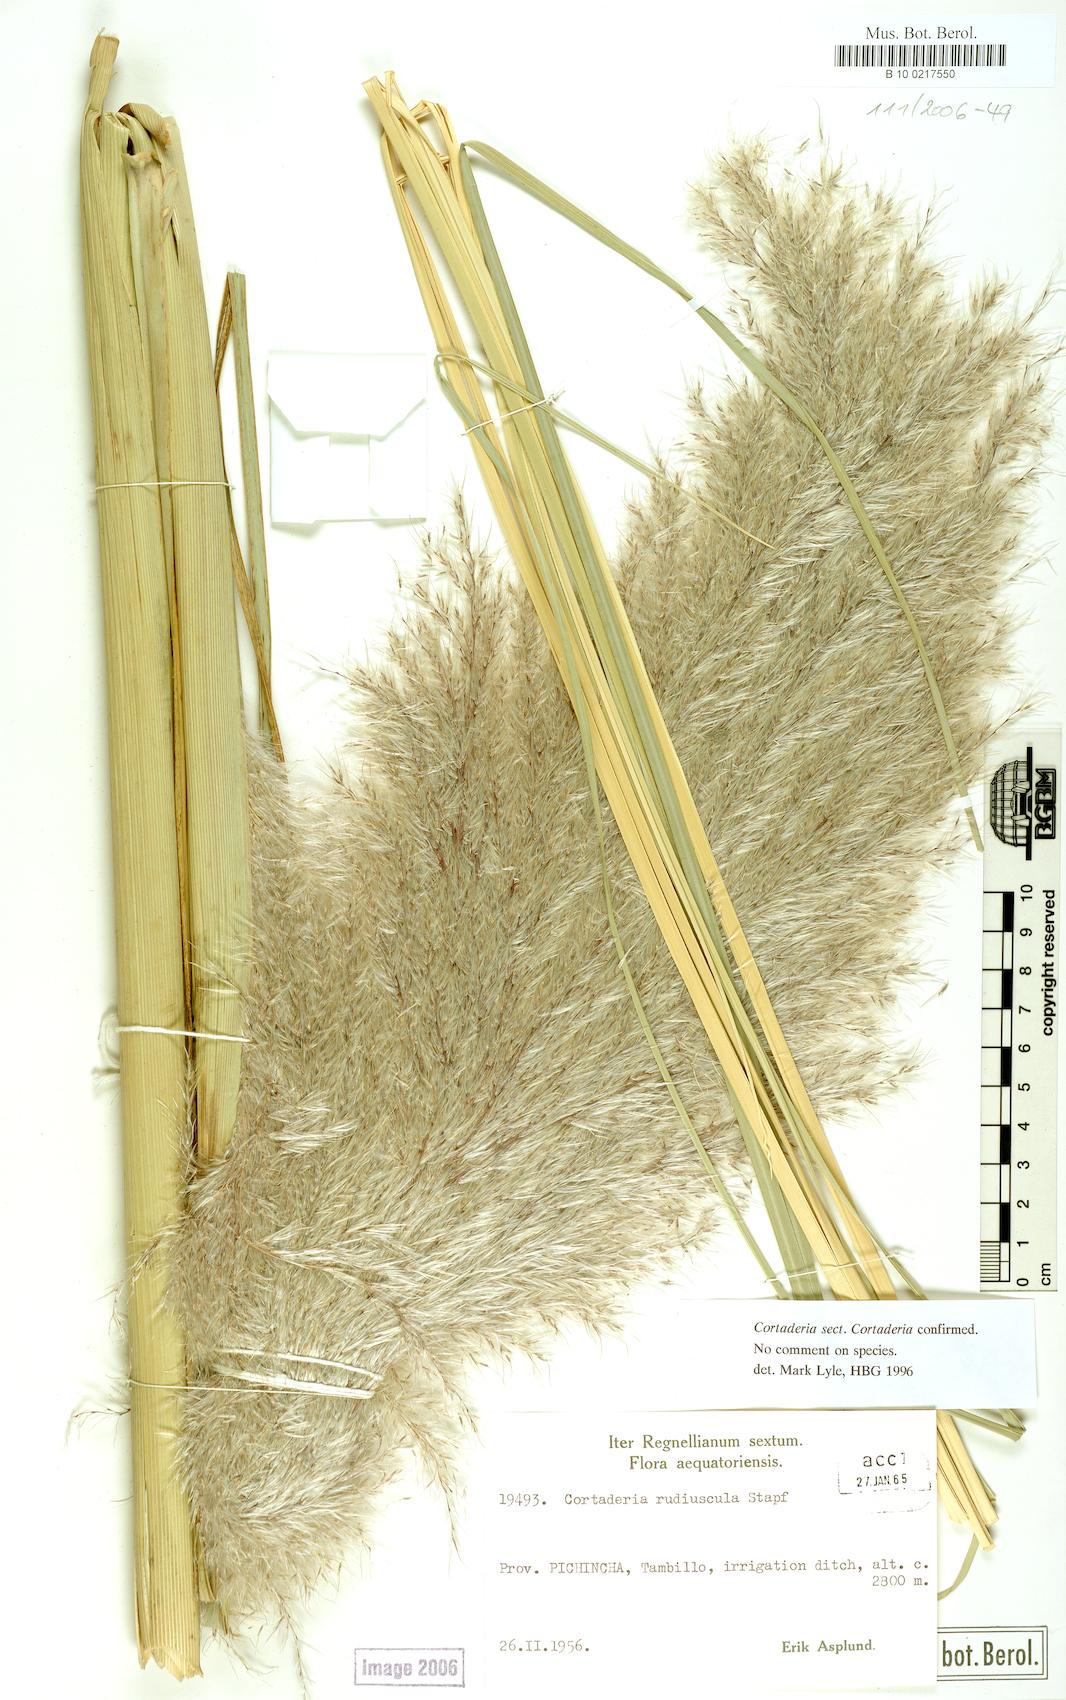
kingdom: Plantae
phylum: Tracheophyta
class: Liliopsida
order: Poales
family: Poaceae
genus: Cortaderia
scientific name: Cortaderia jubata
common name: Purple pampas grass
